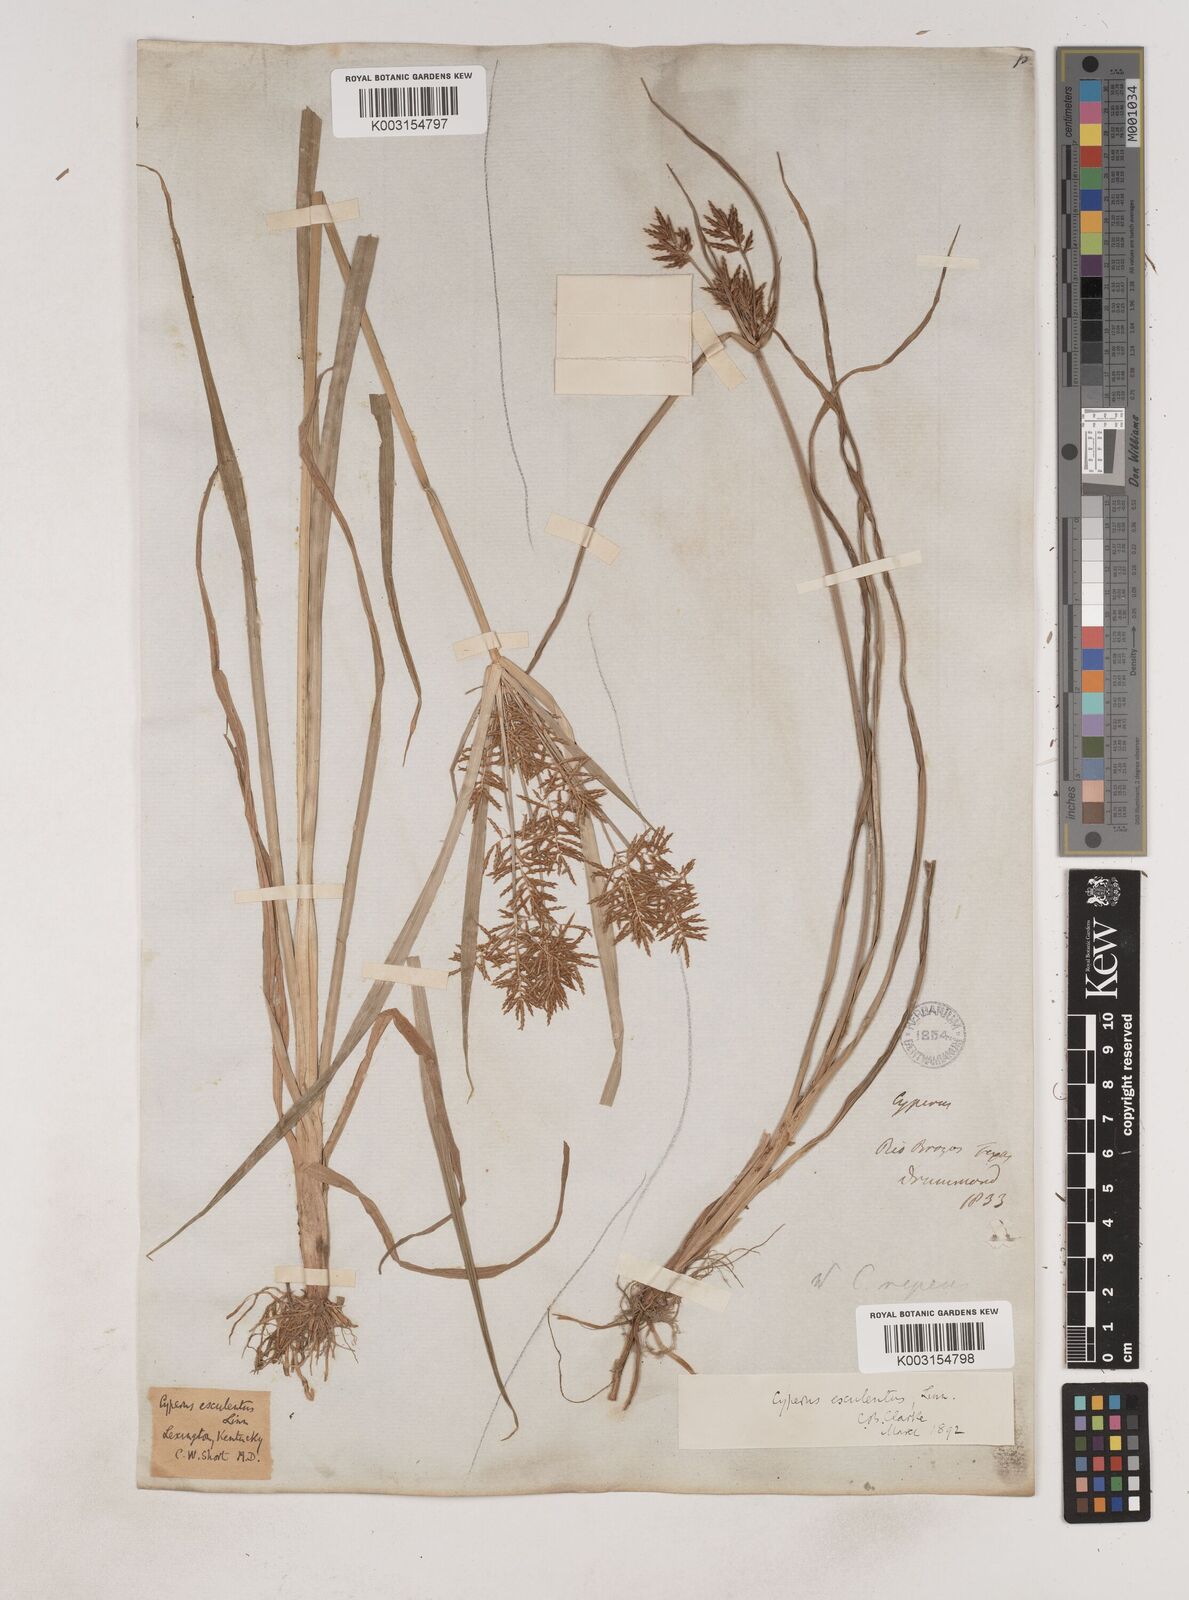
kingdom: Plantae
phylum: Tracheophyta
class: Liliopsida
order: Poales
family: Cyperaceae
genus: Cyperus
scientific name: Cyperus esculentus
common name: Yellow nutsedge
